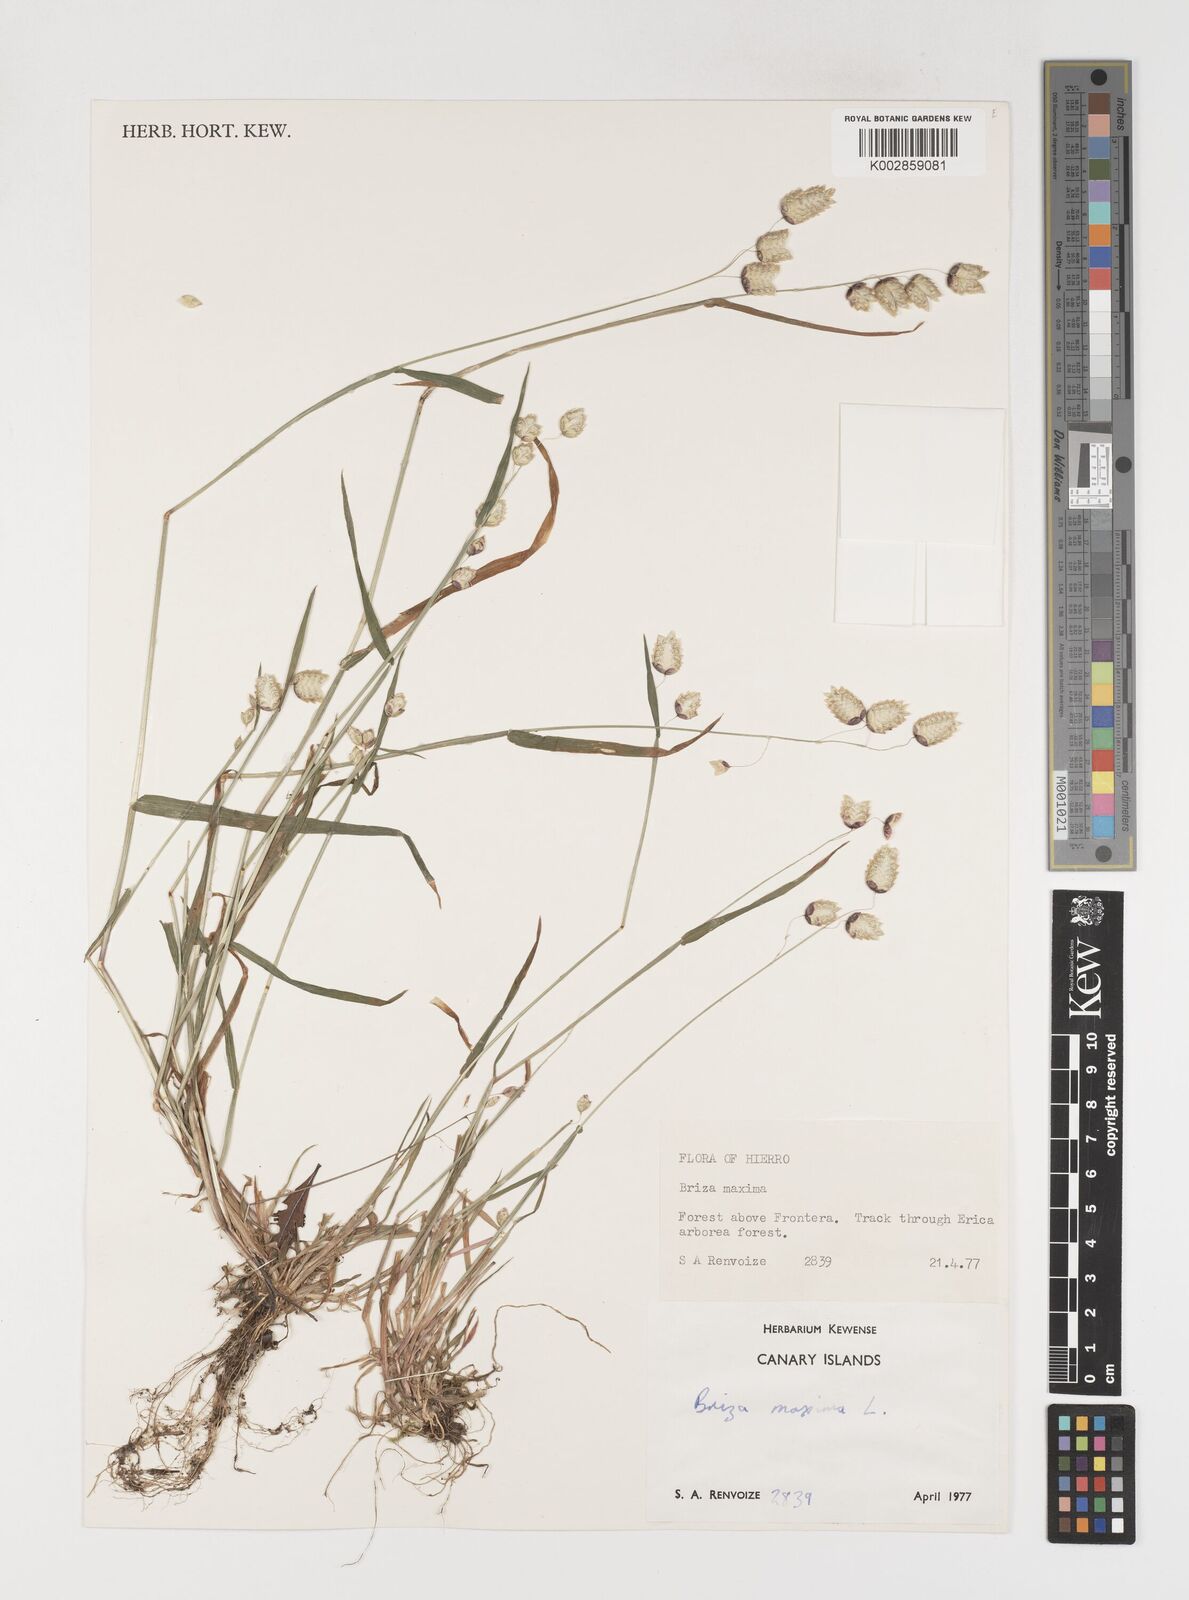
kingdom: Plantae
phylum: Tracheophyta
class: Liliopsida
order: Poales
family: Poaceae
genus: Briza
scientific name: Briza maxima
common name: Big quakinggrass
